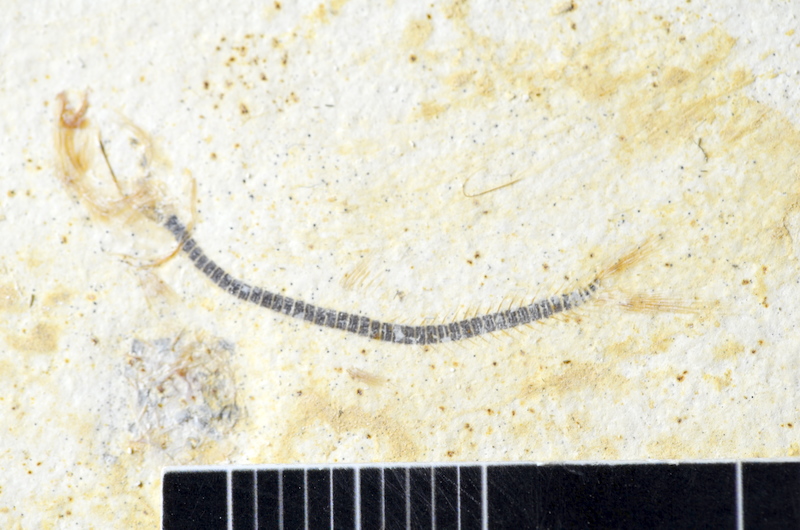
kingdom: Animalia
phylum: Chordata
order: Salmoniformes
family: Orthogonikleithridae
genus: Orthogonikleithrus
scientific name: Orthogonikleithrus hoelli
